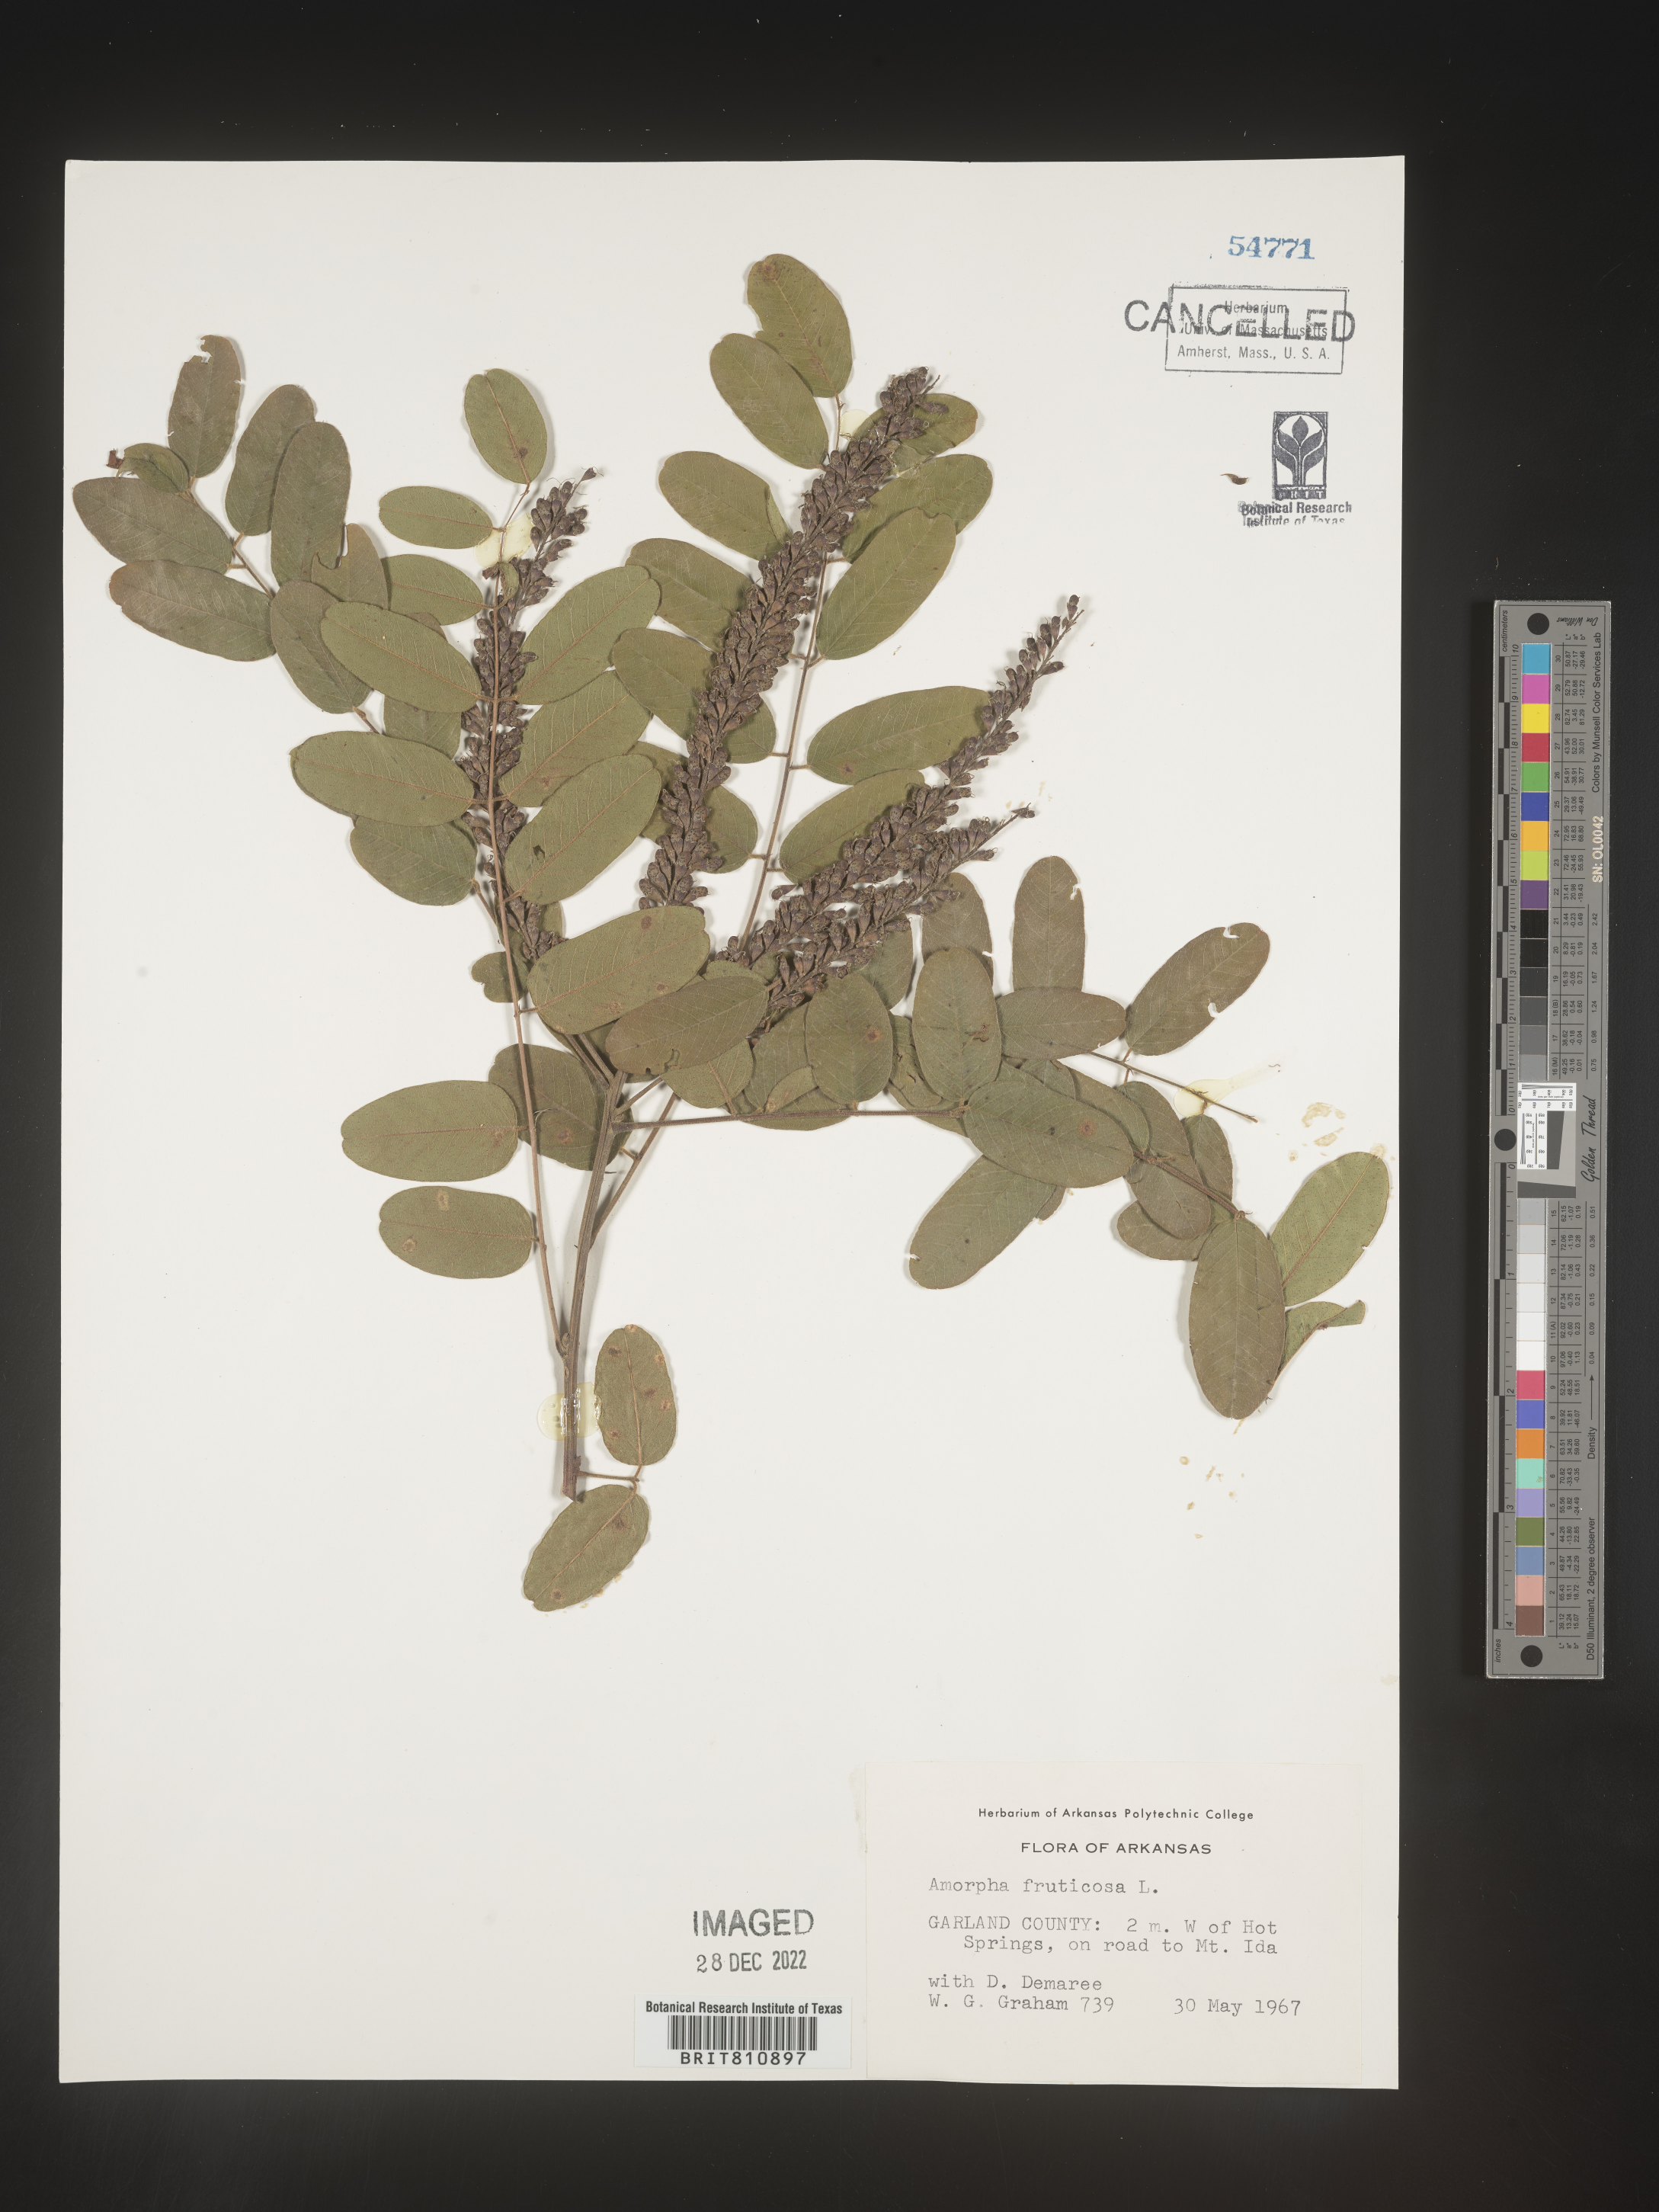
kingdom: Plantae
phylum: Tracheophyta
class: Magnoliopsida
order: Fabales
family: Fabaceae
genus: Amorpha
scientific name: Amorpha fruticosa
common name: False indigo
